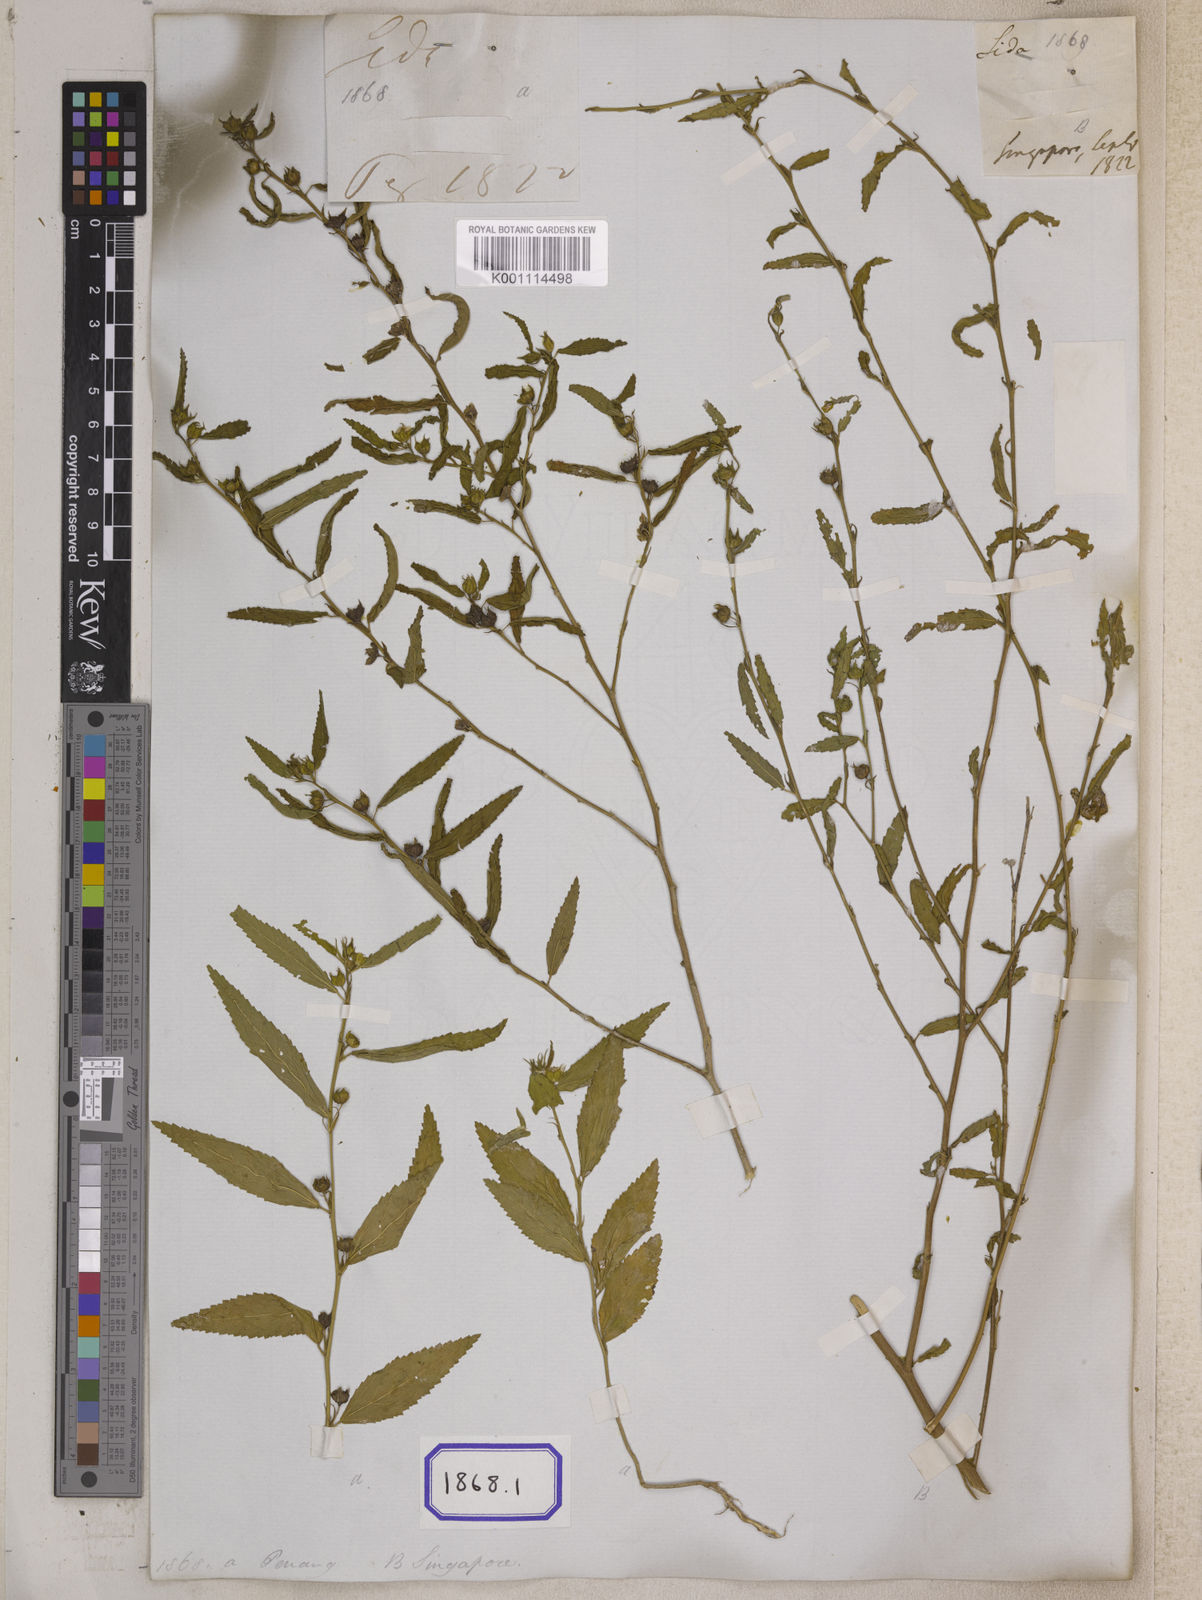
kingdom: Plantae
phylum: Tracheophyta
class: Magnoliopsida
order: Malvales
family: Malvaceae
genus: Sida
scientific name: Sida acuta
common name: Common wireweed
